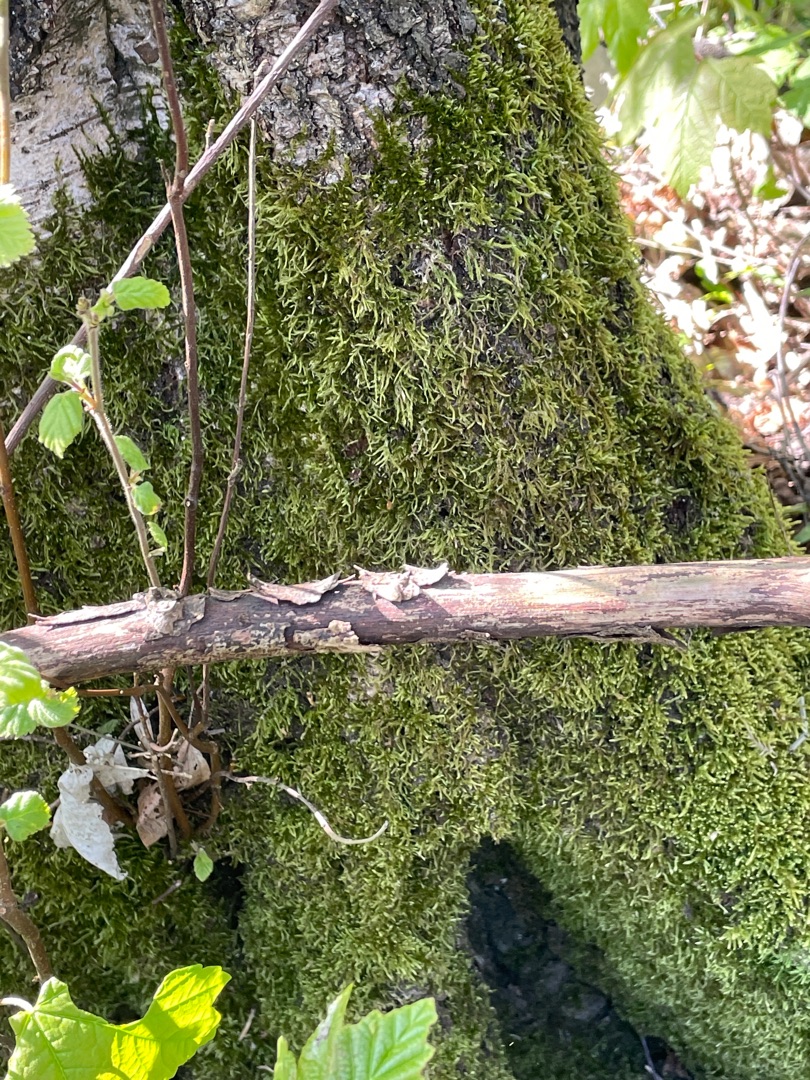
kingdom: Plantae
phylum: Bryophyta
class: Bryopsida
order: Hypnales
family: Hypnaceae
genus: Hypnum
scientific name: Hypnum cupressiforme
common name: Almindelig cypresmos
